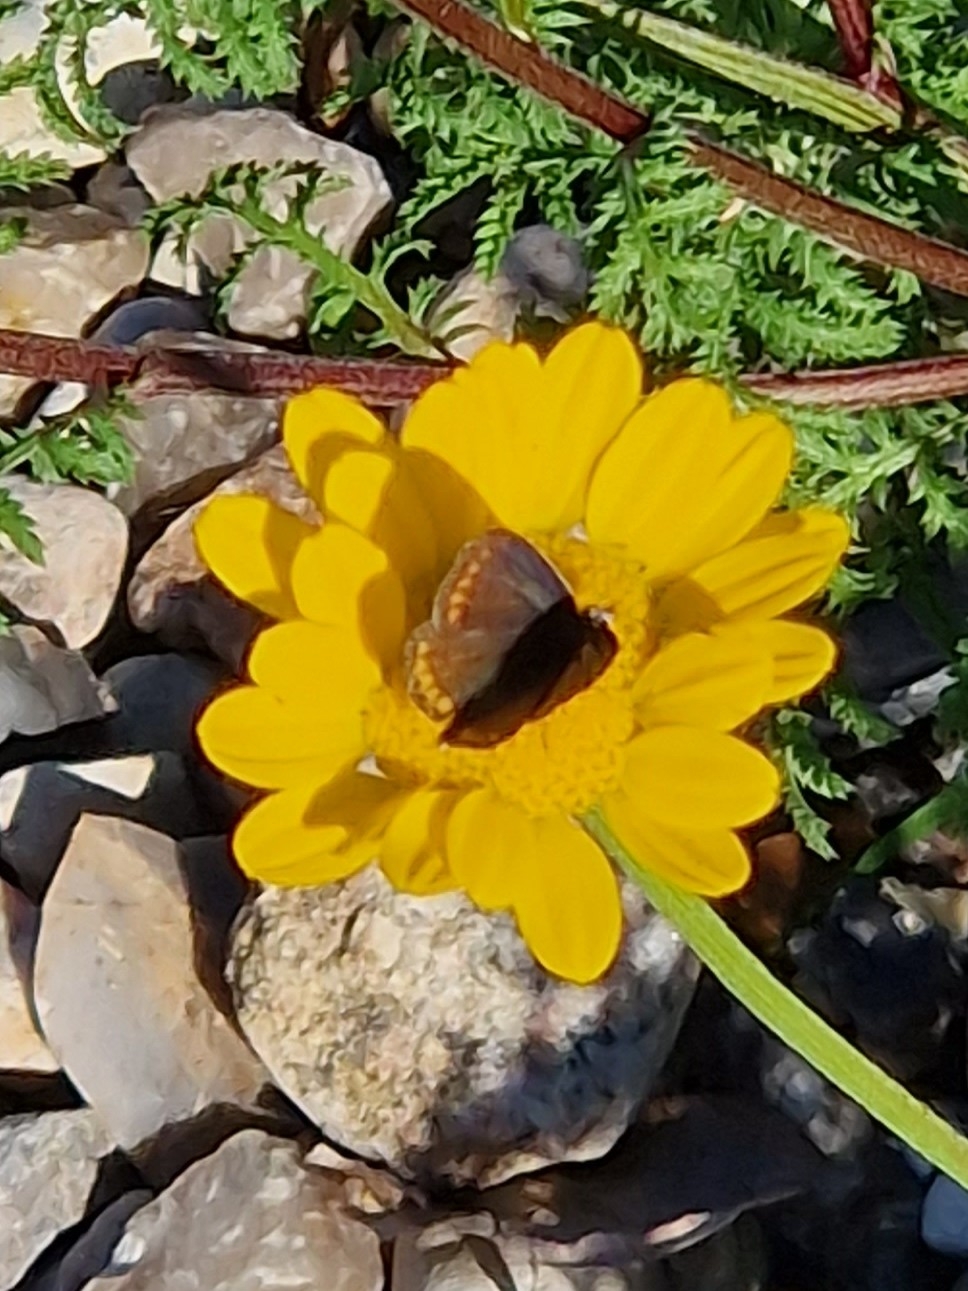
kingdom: Animalia
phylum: Arthropoda
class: Insecta
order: Lepidoptera
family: Lycaenidae
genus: Aricia
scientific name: Aricia agestis
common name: Rødplettet blåfugl
